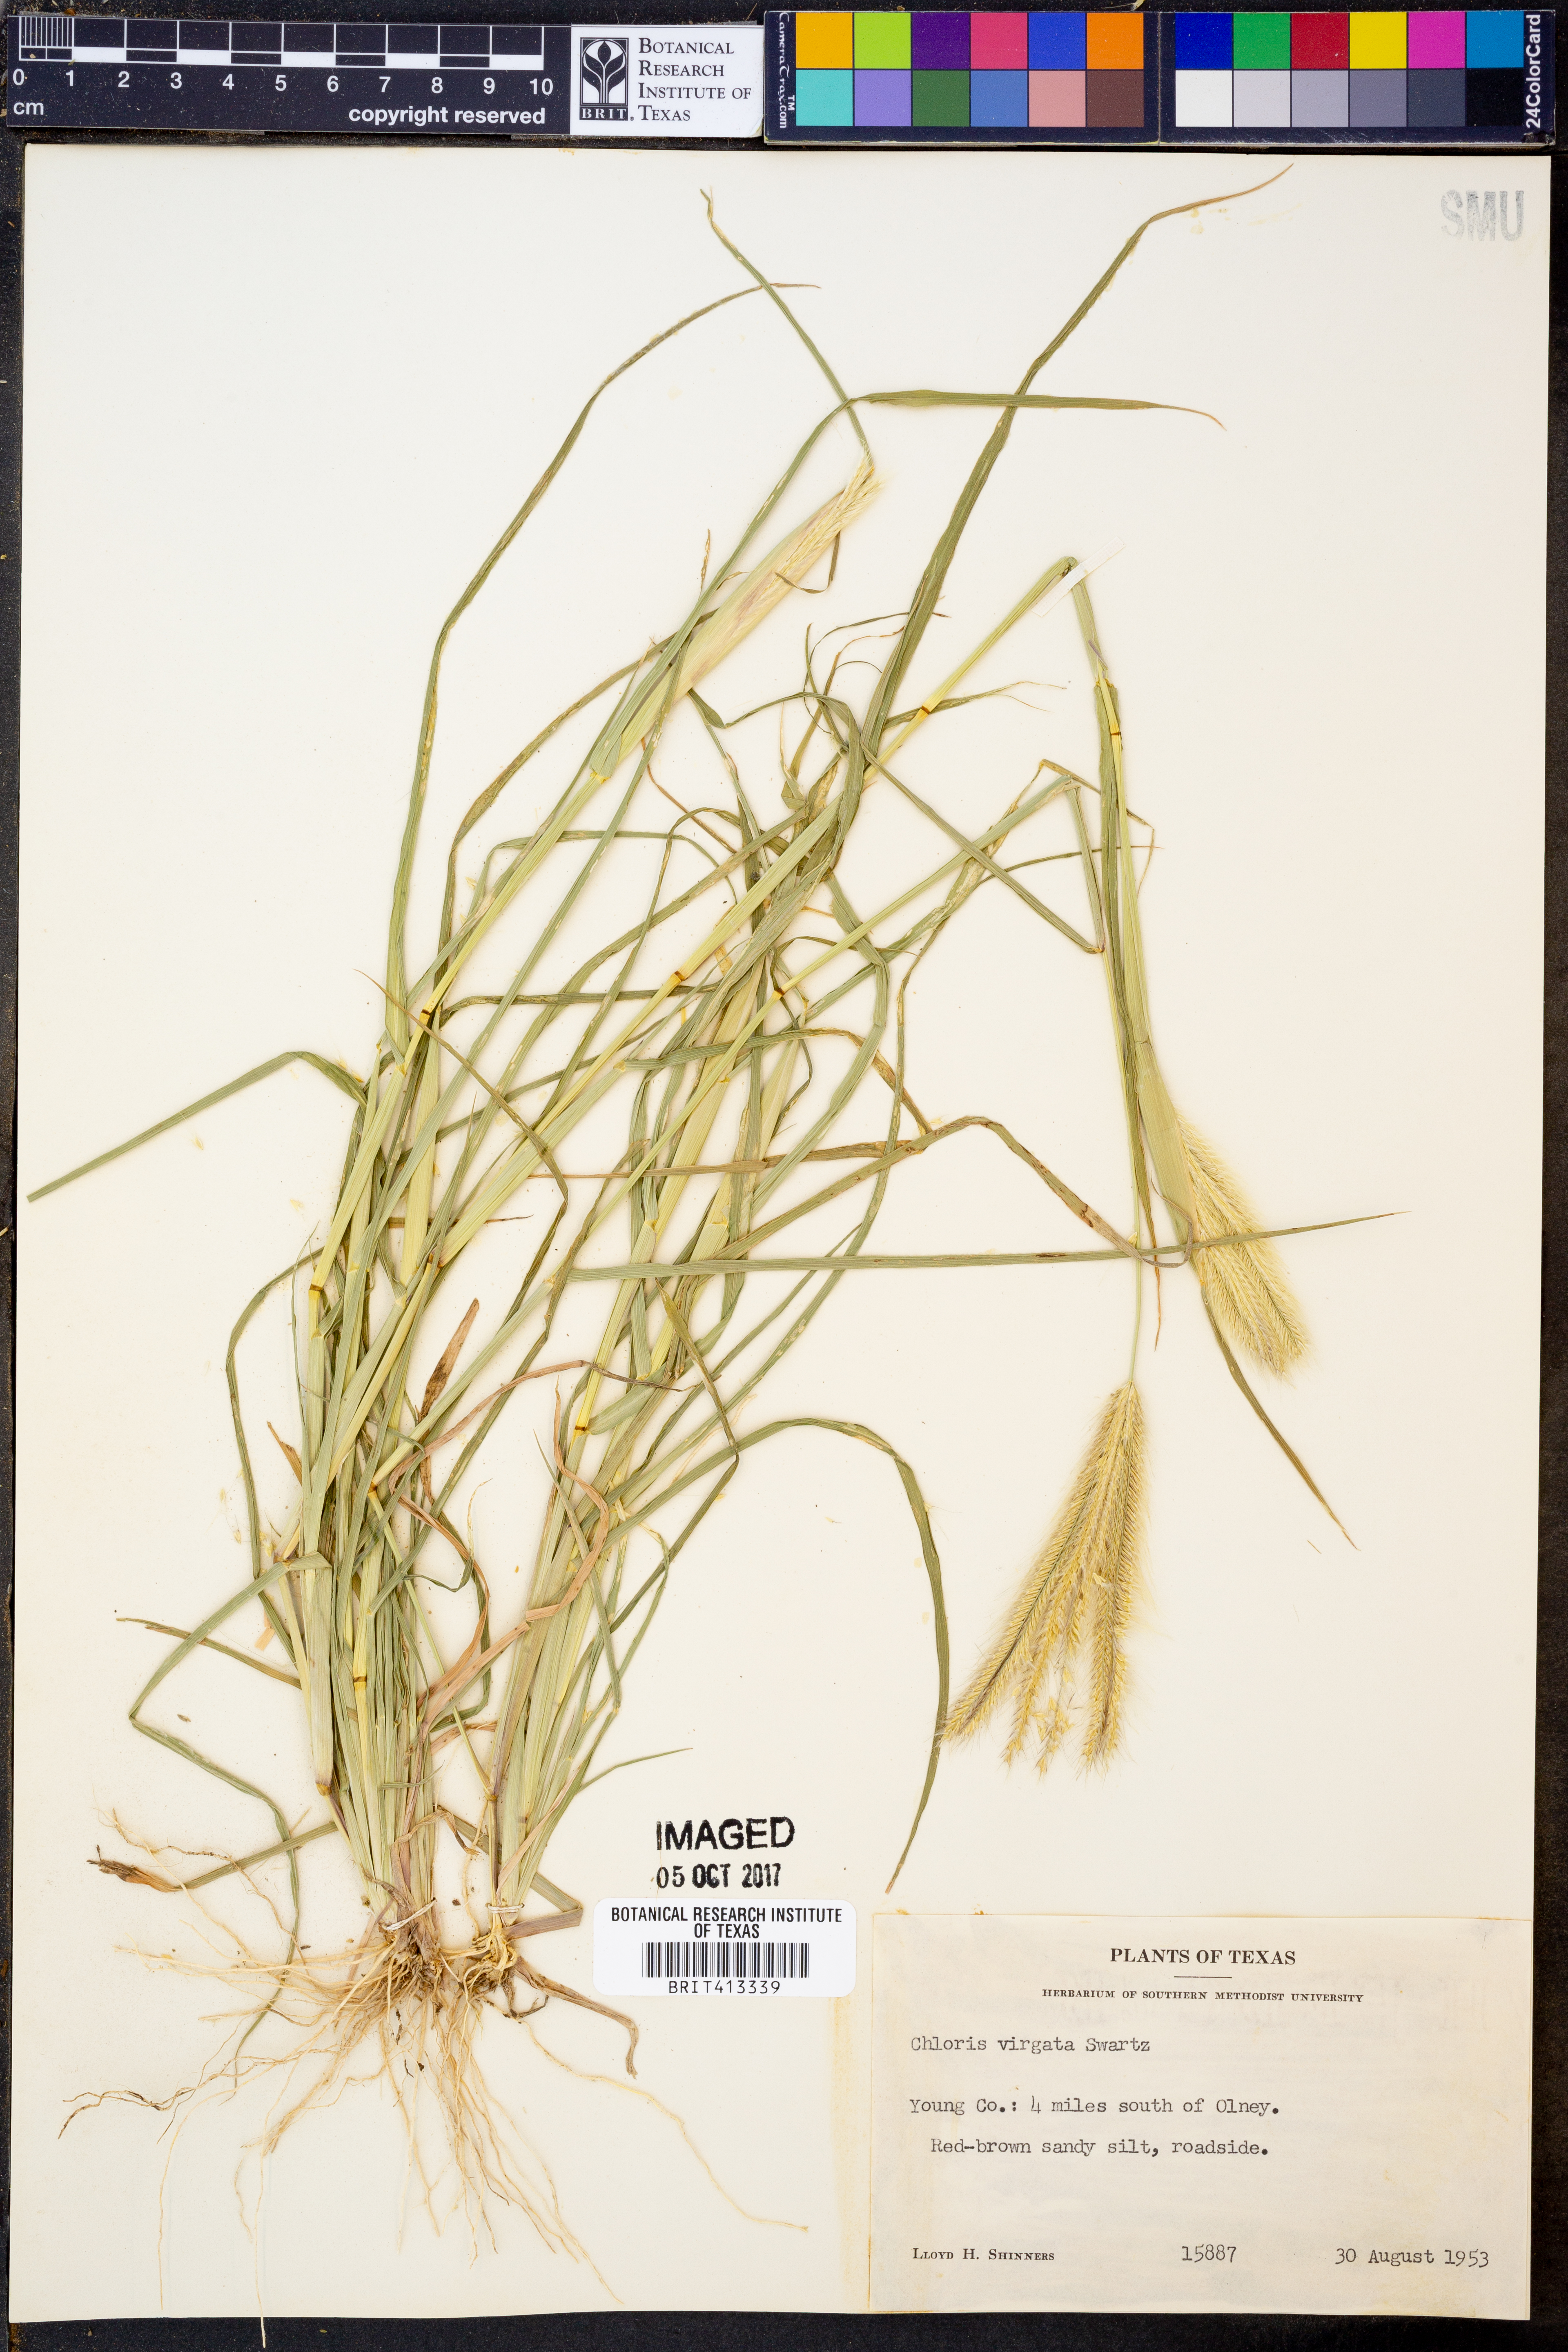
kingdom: Plantae
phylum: Tracheophyta
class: Liliopsida
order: Poales
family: Poaceae
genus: Chloris
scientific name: Chloris virgata
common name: Feathery rhodes-grass
